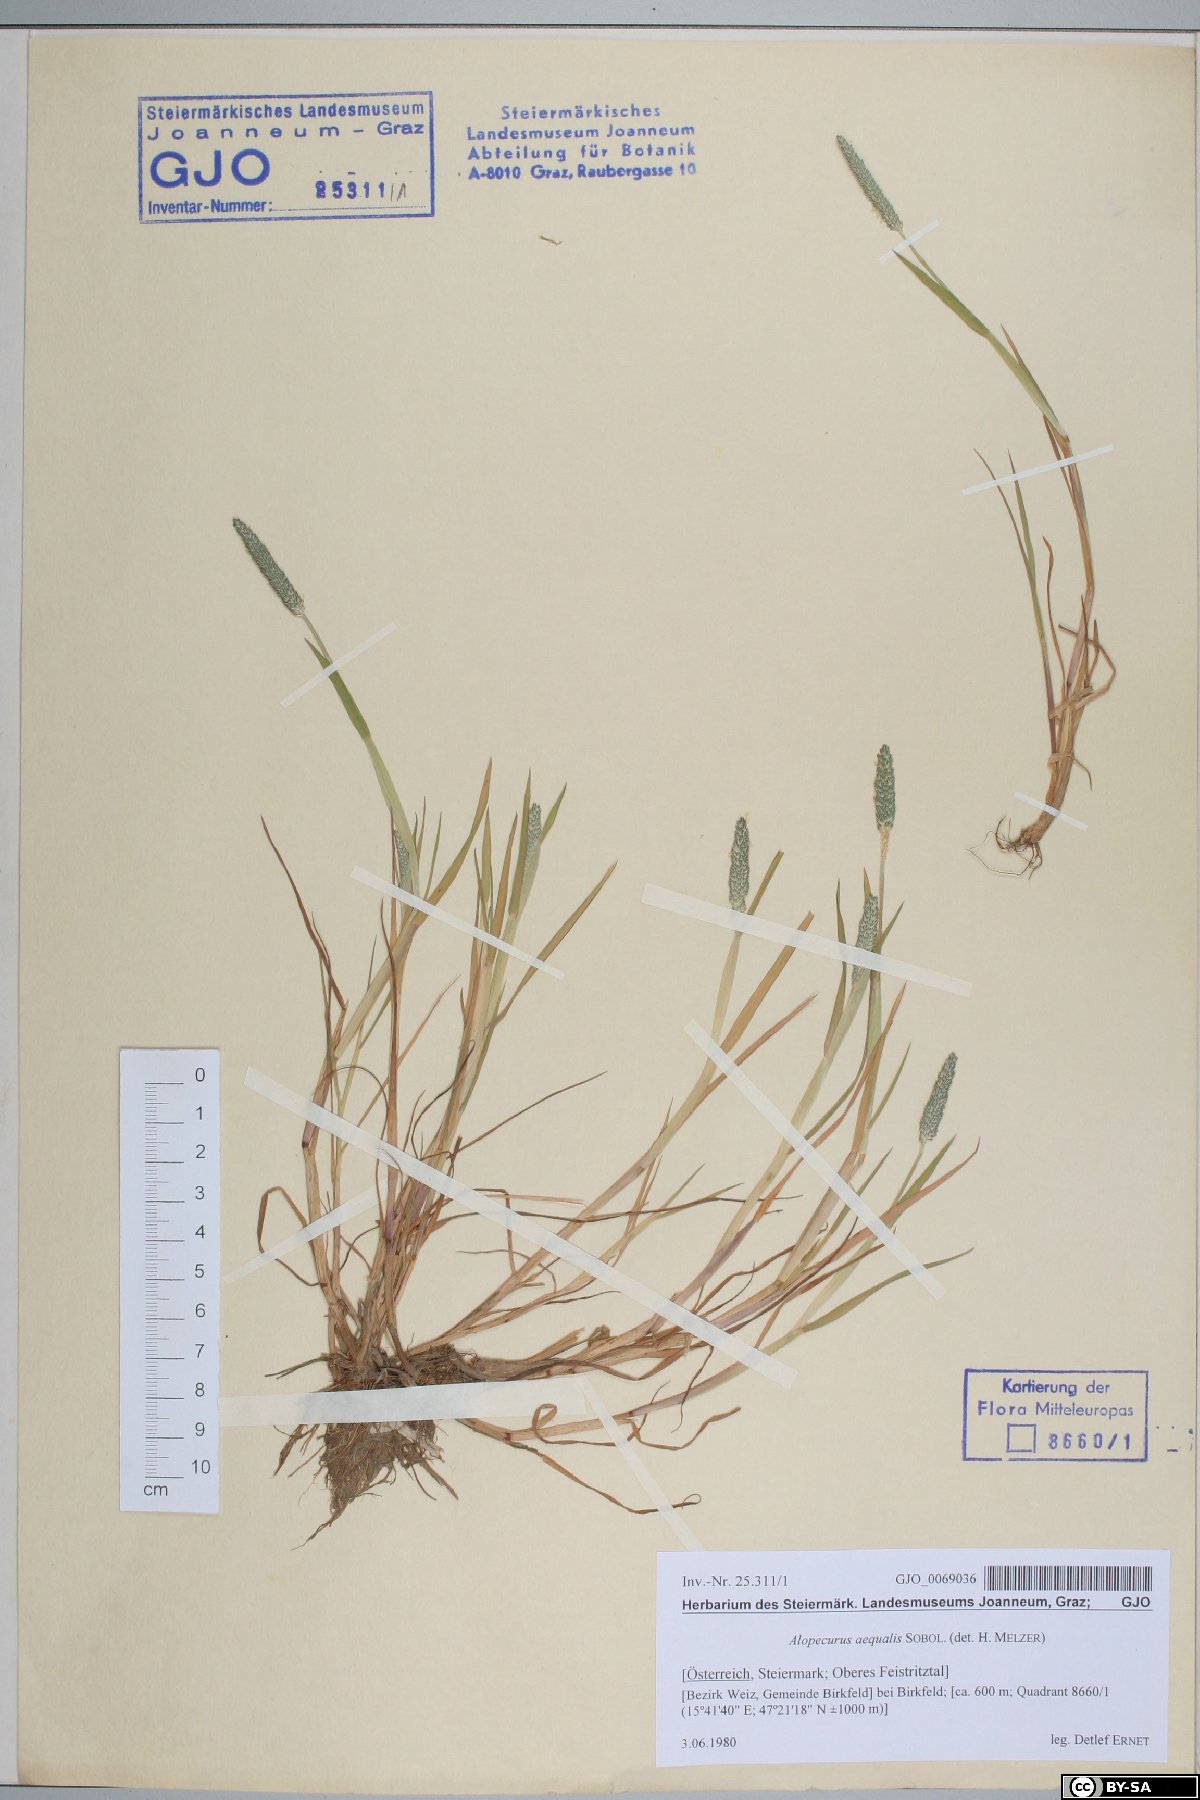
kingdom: Plantae
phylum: Tracheophyta
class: Liliopsida
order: Poales
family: Poaceae
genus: Alopecurus
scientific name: Alopecurus aequalis
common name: Orange foxtail
